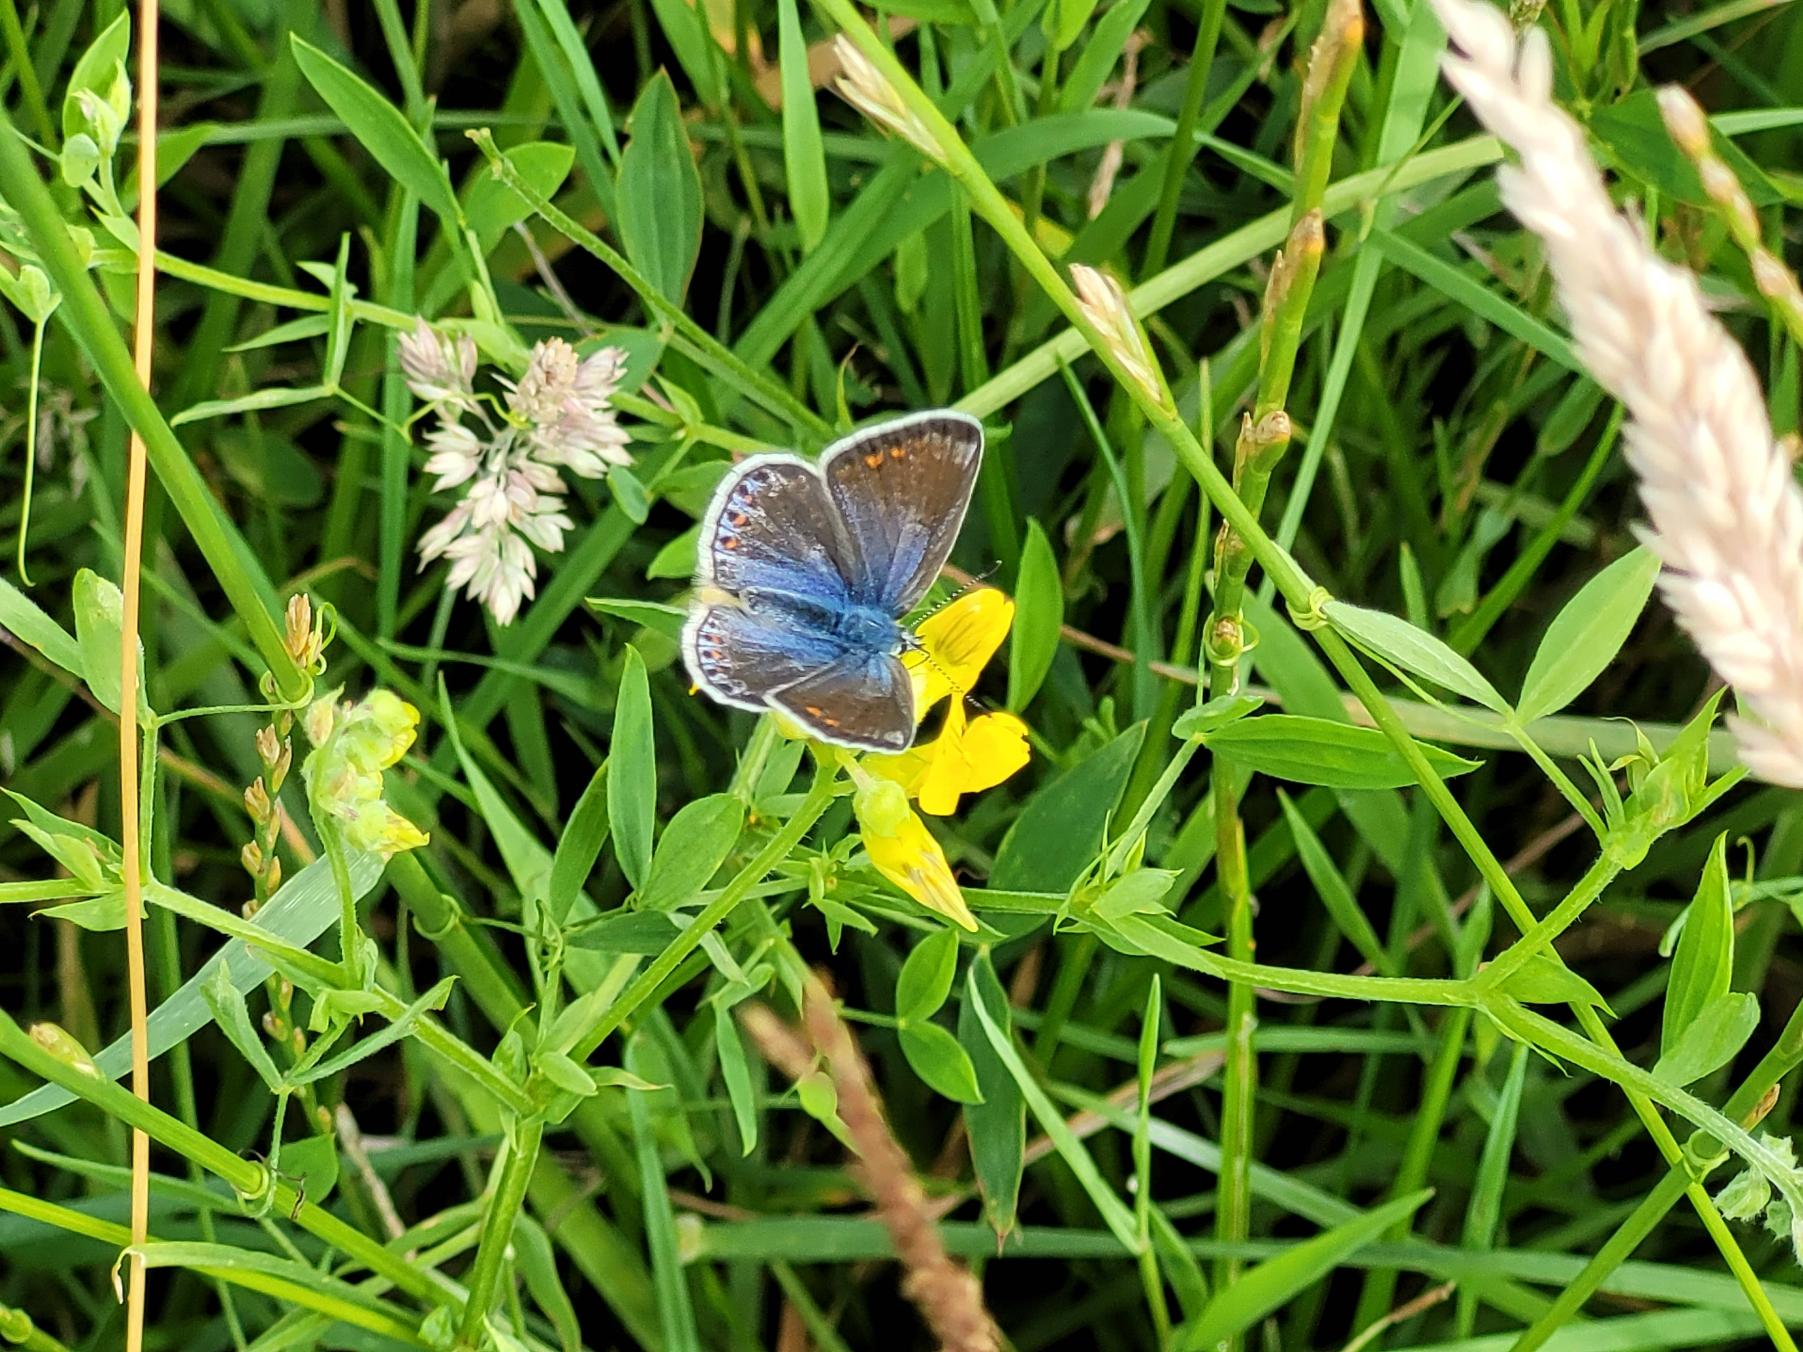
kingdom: Animalia
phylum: Arthropoda
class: Insecta
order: Lepidoptera
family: Lycaenidae
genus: Polyommatus
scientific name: Polyommatus icarus
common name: Almindelig blåfugl
